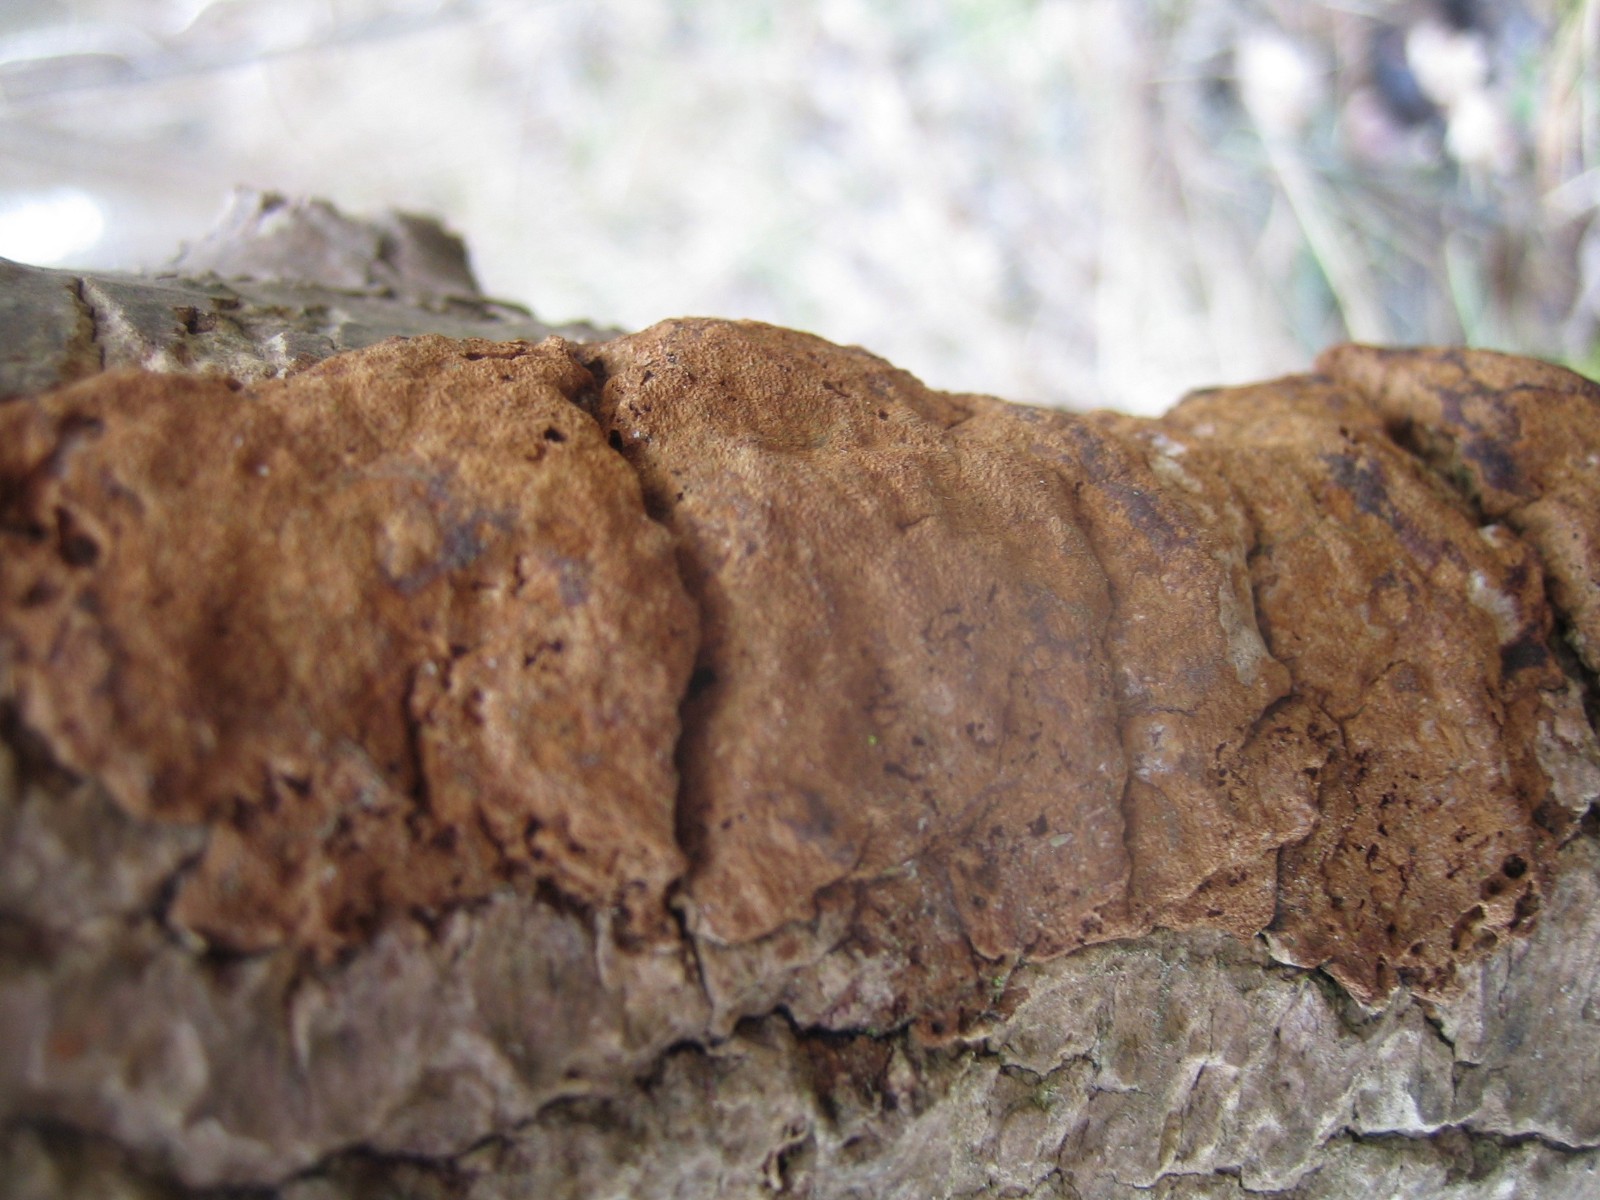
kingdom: Fungi
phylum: Basidiomycota
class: Agaricomycetes
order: Hymenochaetales
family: Hymenochaetaceae
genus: Fuscoporia
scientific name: Fuscoporia ferrea
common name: skorpe-ildporesvamp
